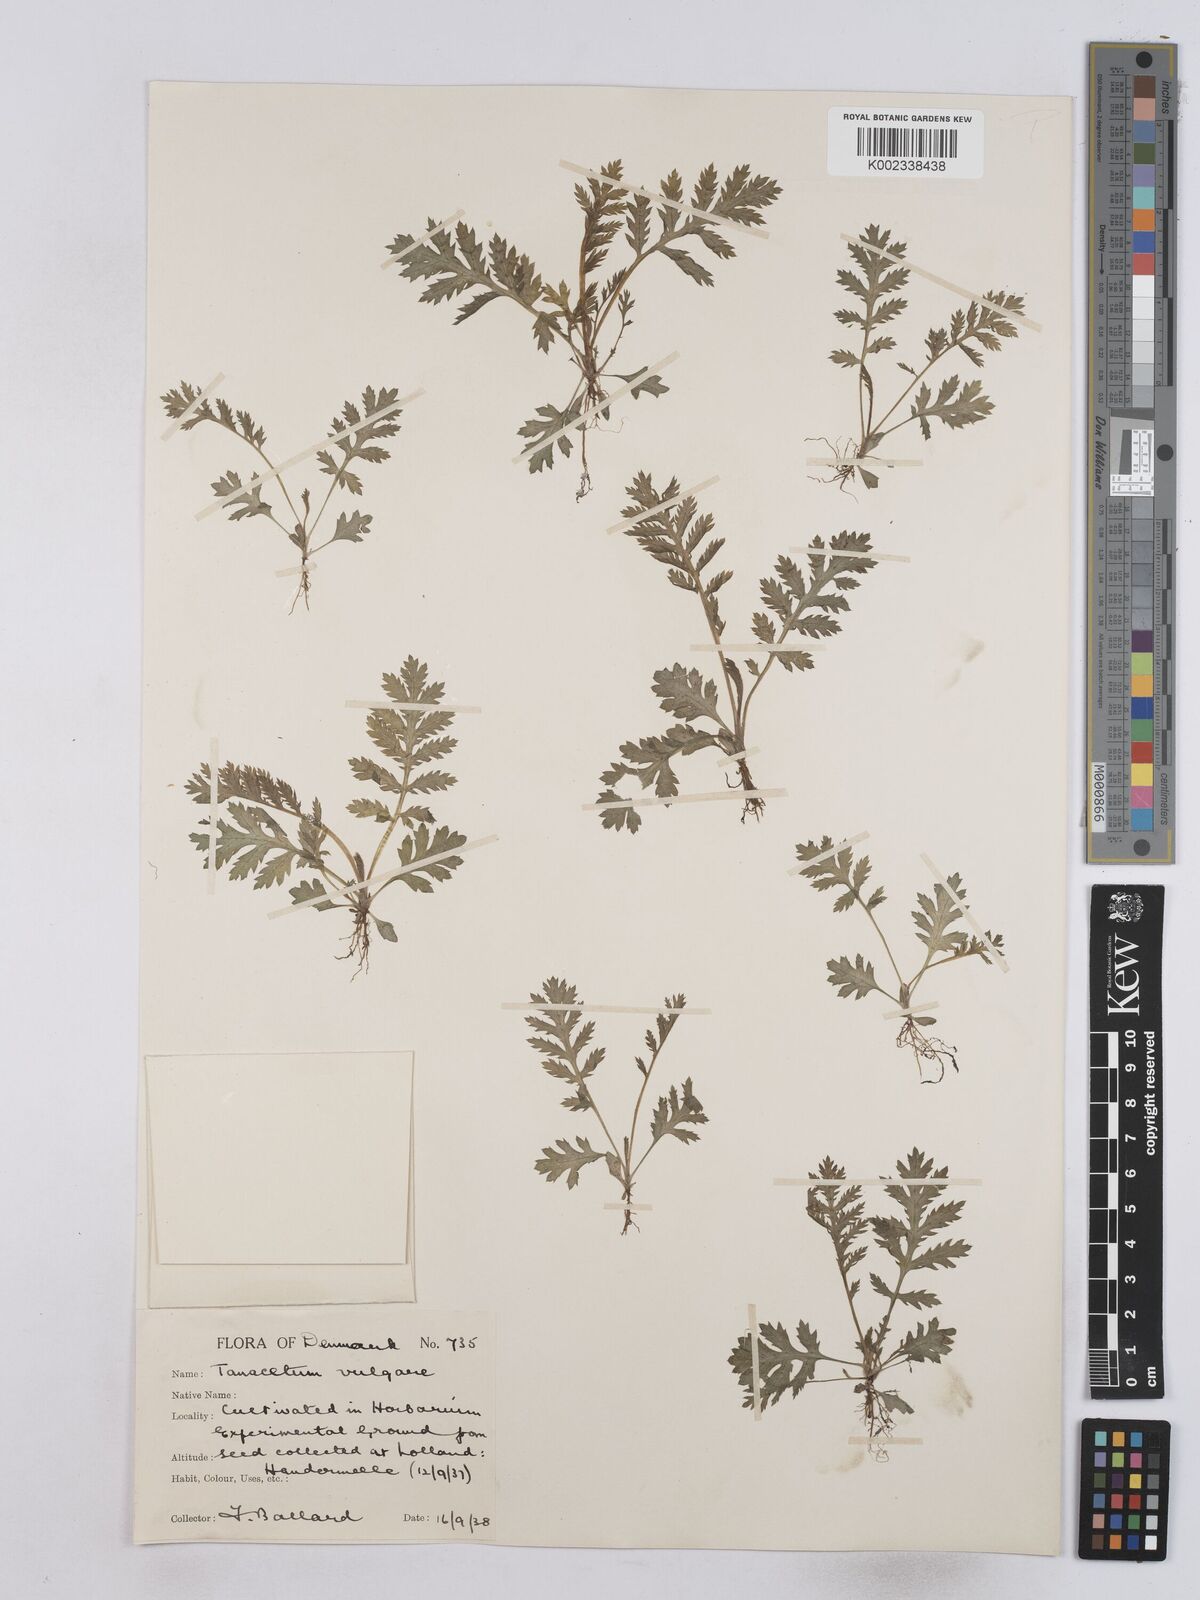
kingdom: Plantae
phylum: Tracheophyta
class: Magnoliopsida
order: Asterales
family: Asteraceae
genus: Tanacetum
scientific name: Tanacetum vulgare
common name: Common tansy
